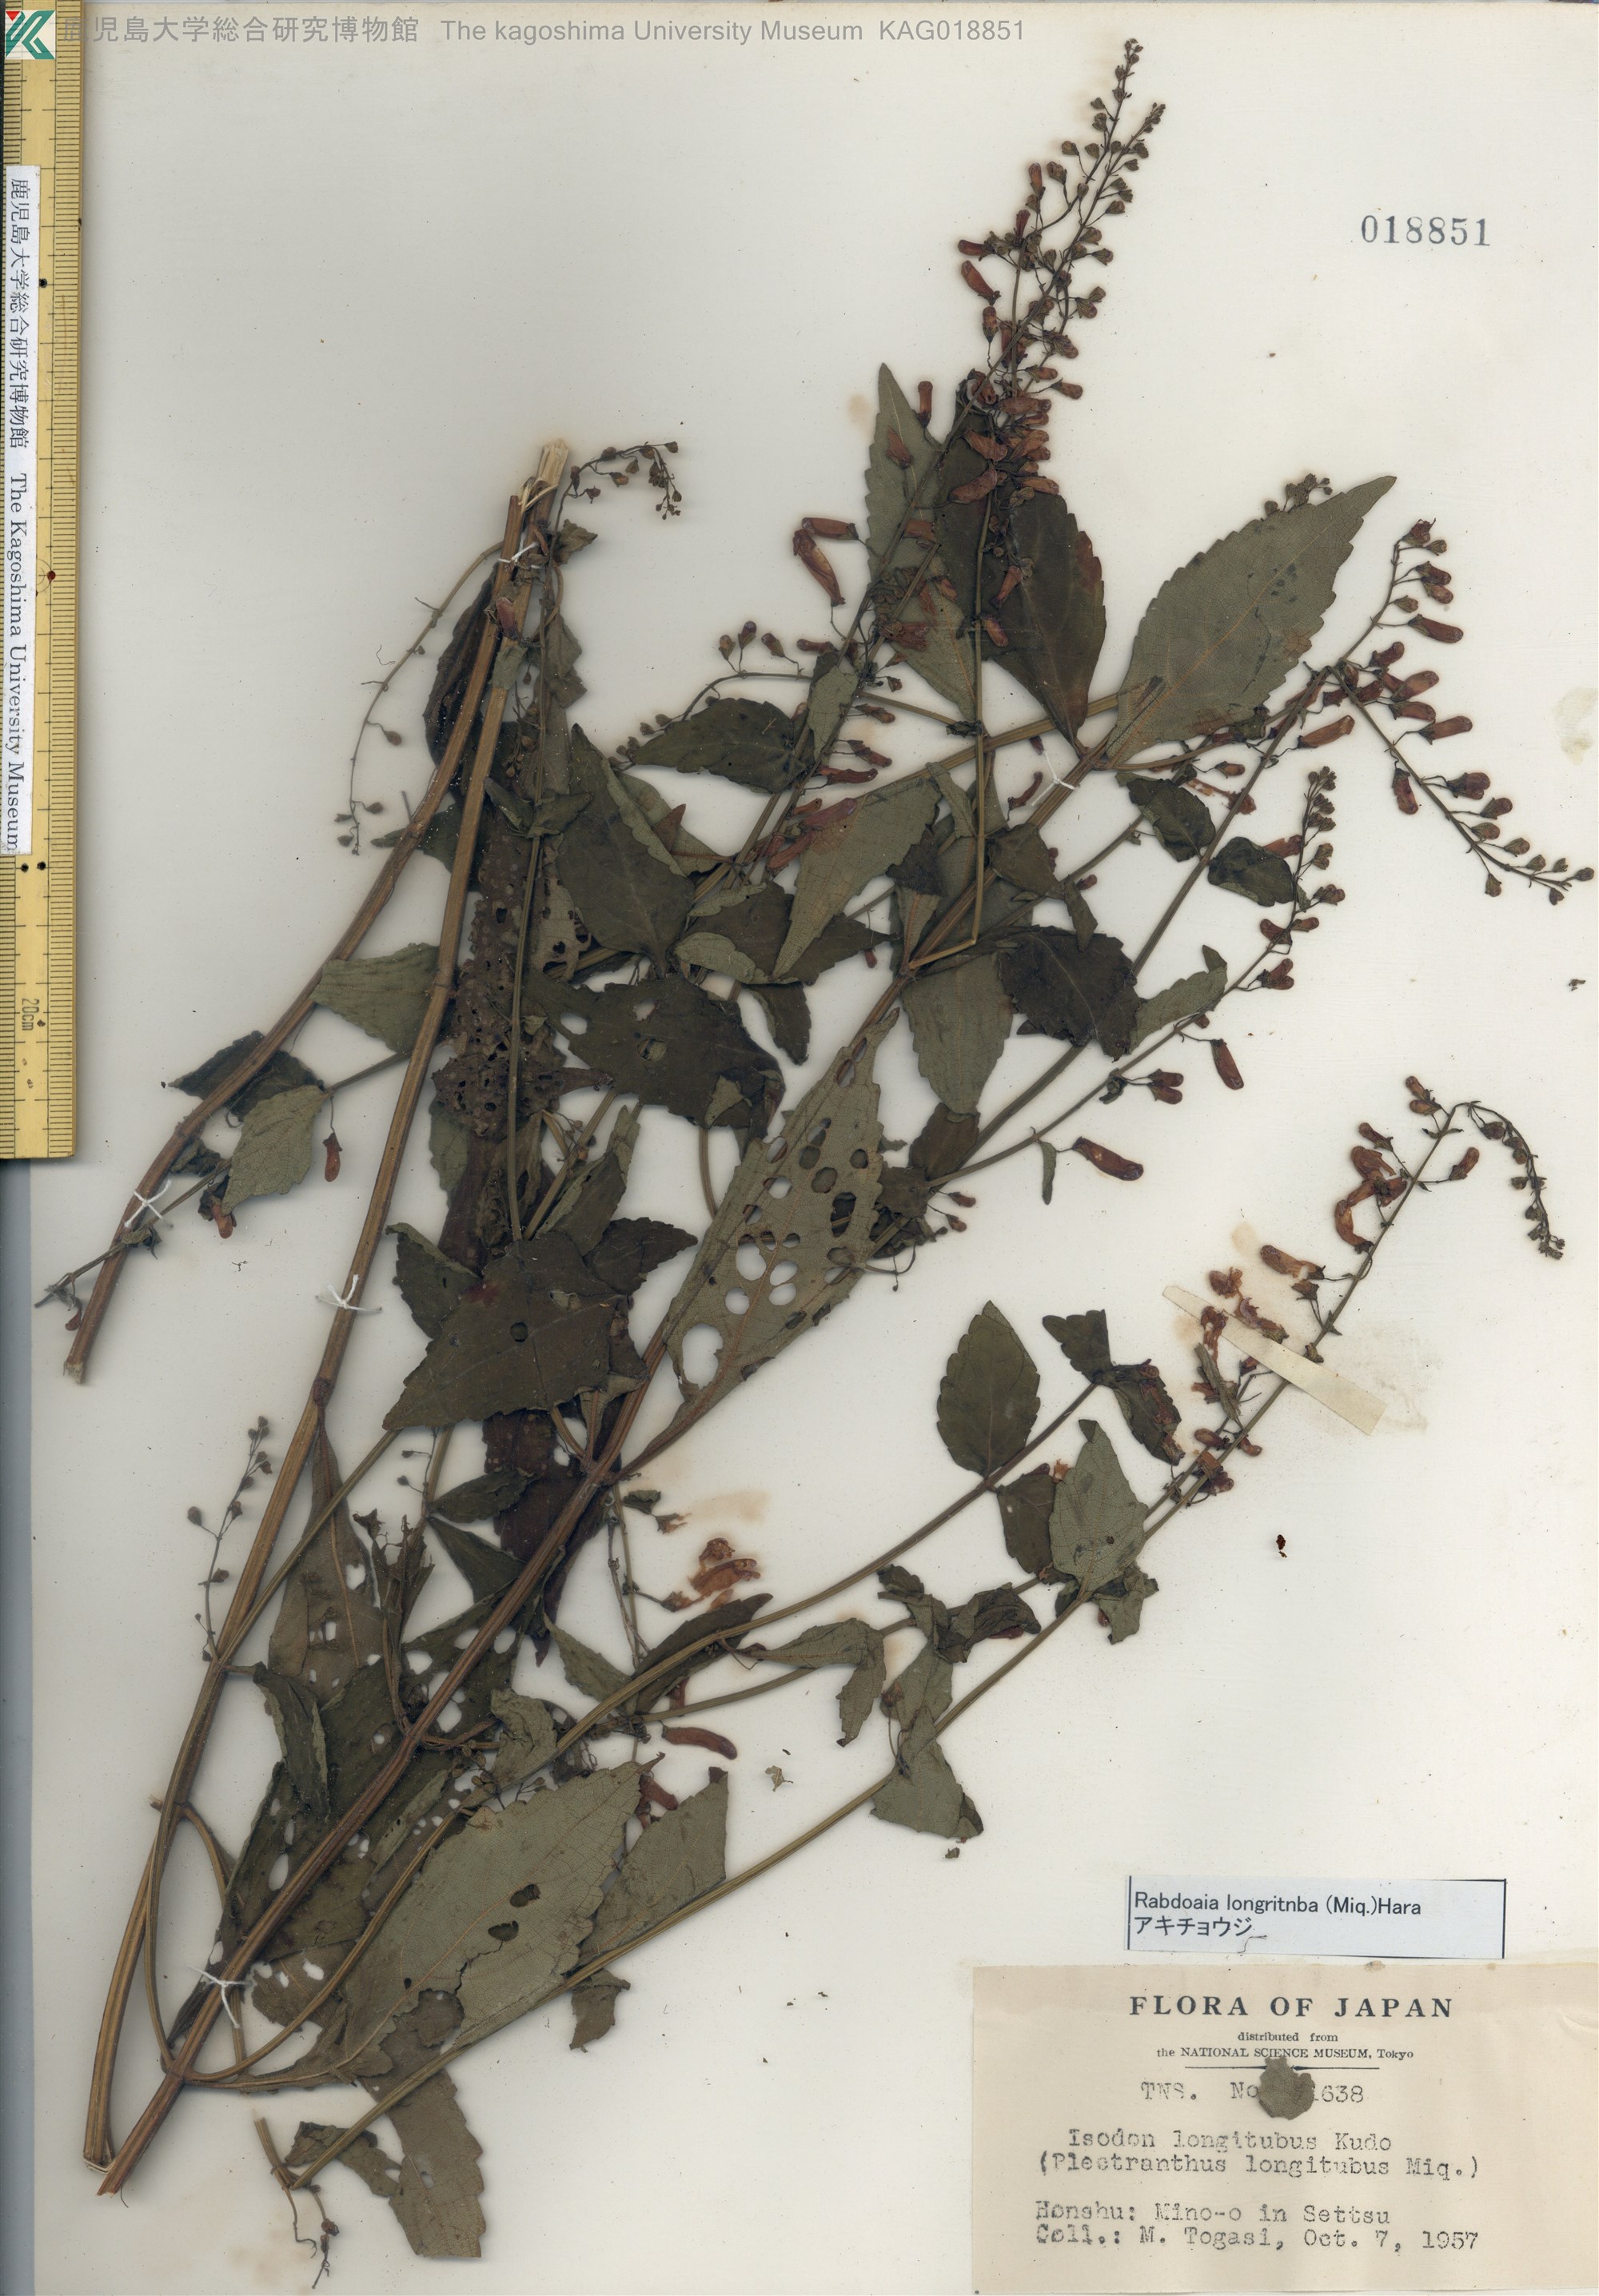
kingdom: Plantae
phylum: Tracheophyta
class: Magnoliopsida
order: Lamiales
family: Lamiaceae
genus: Isodon
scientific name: Isodon longitubus
